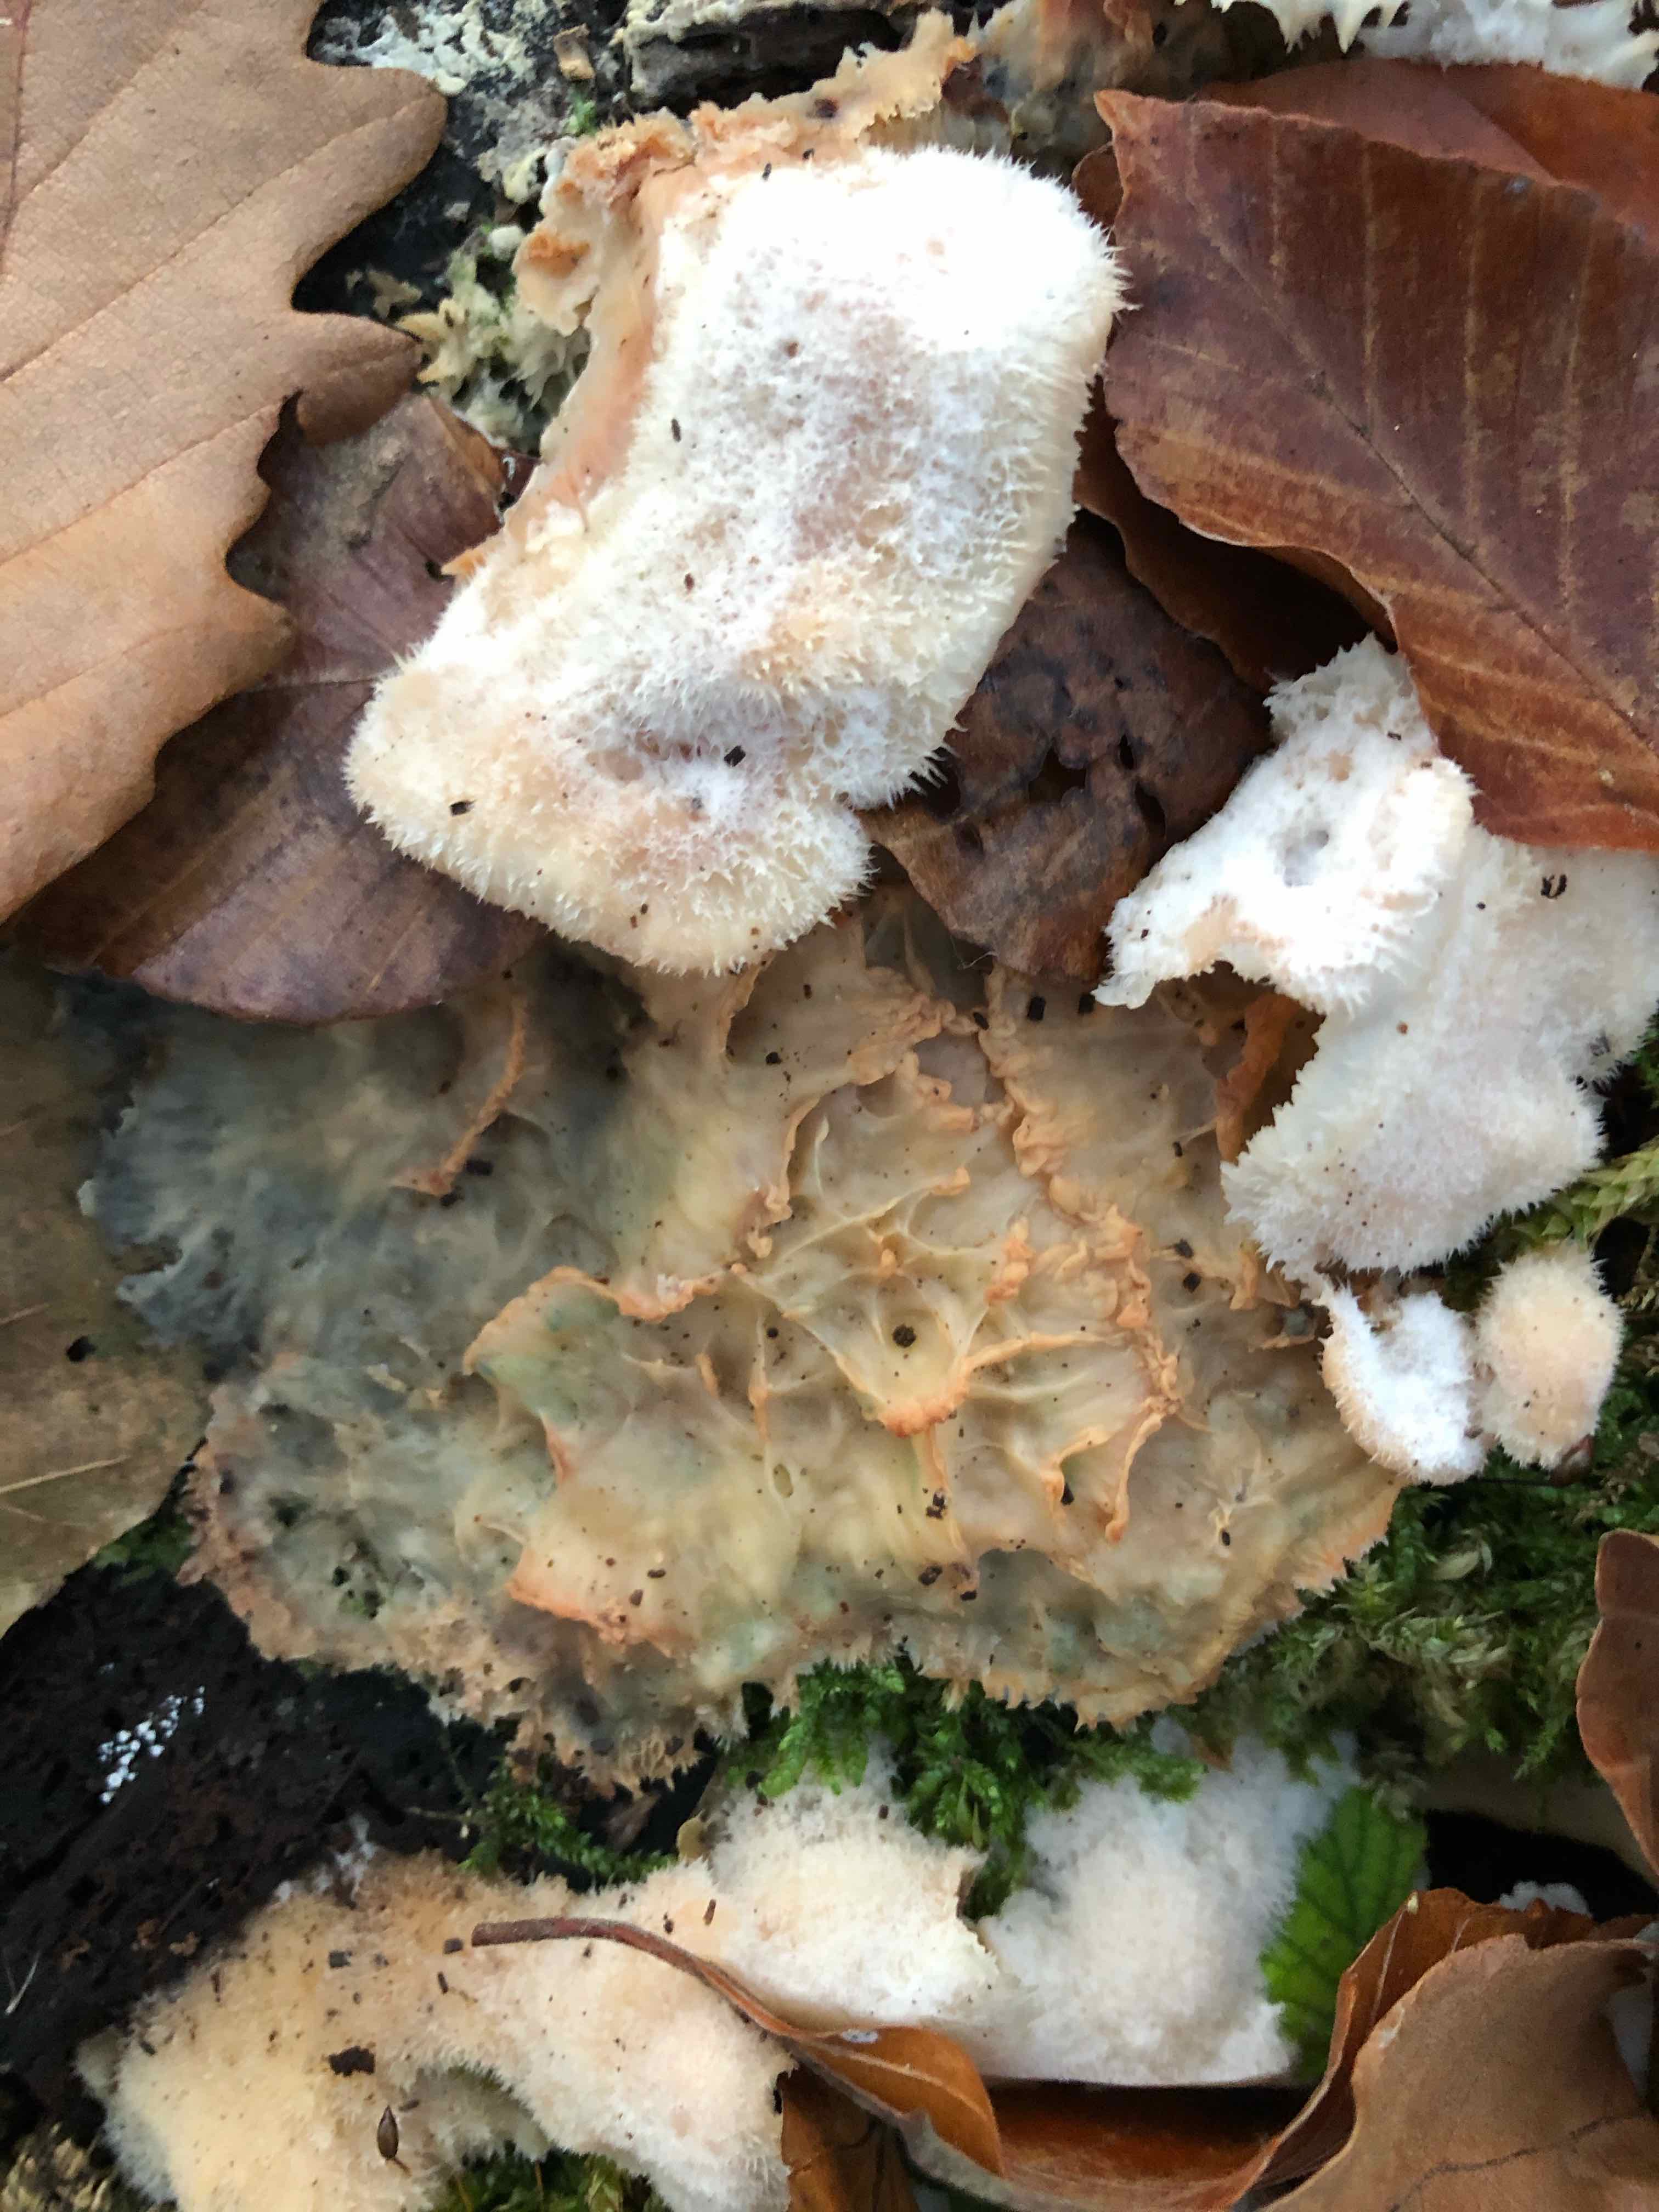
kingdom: Fungi
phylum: Basidiomycota
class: Agaricomycetes
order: Polyporales
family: Meruliaceae
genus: Phlebia
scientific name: Phlebia tremellosa
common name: bævrende åresvamp
